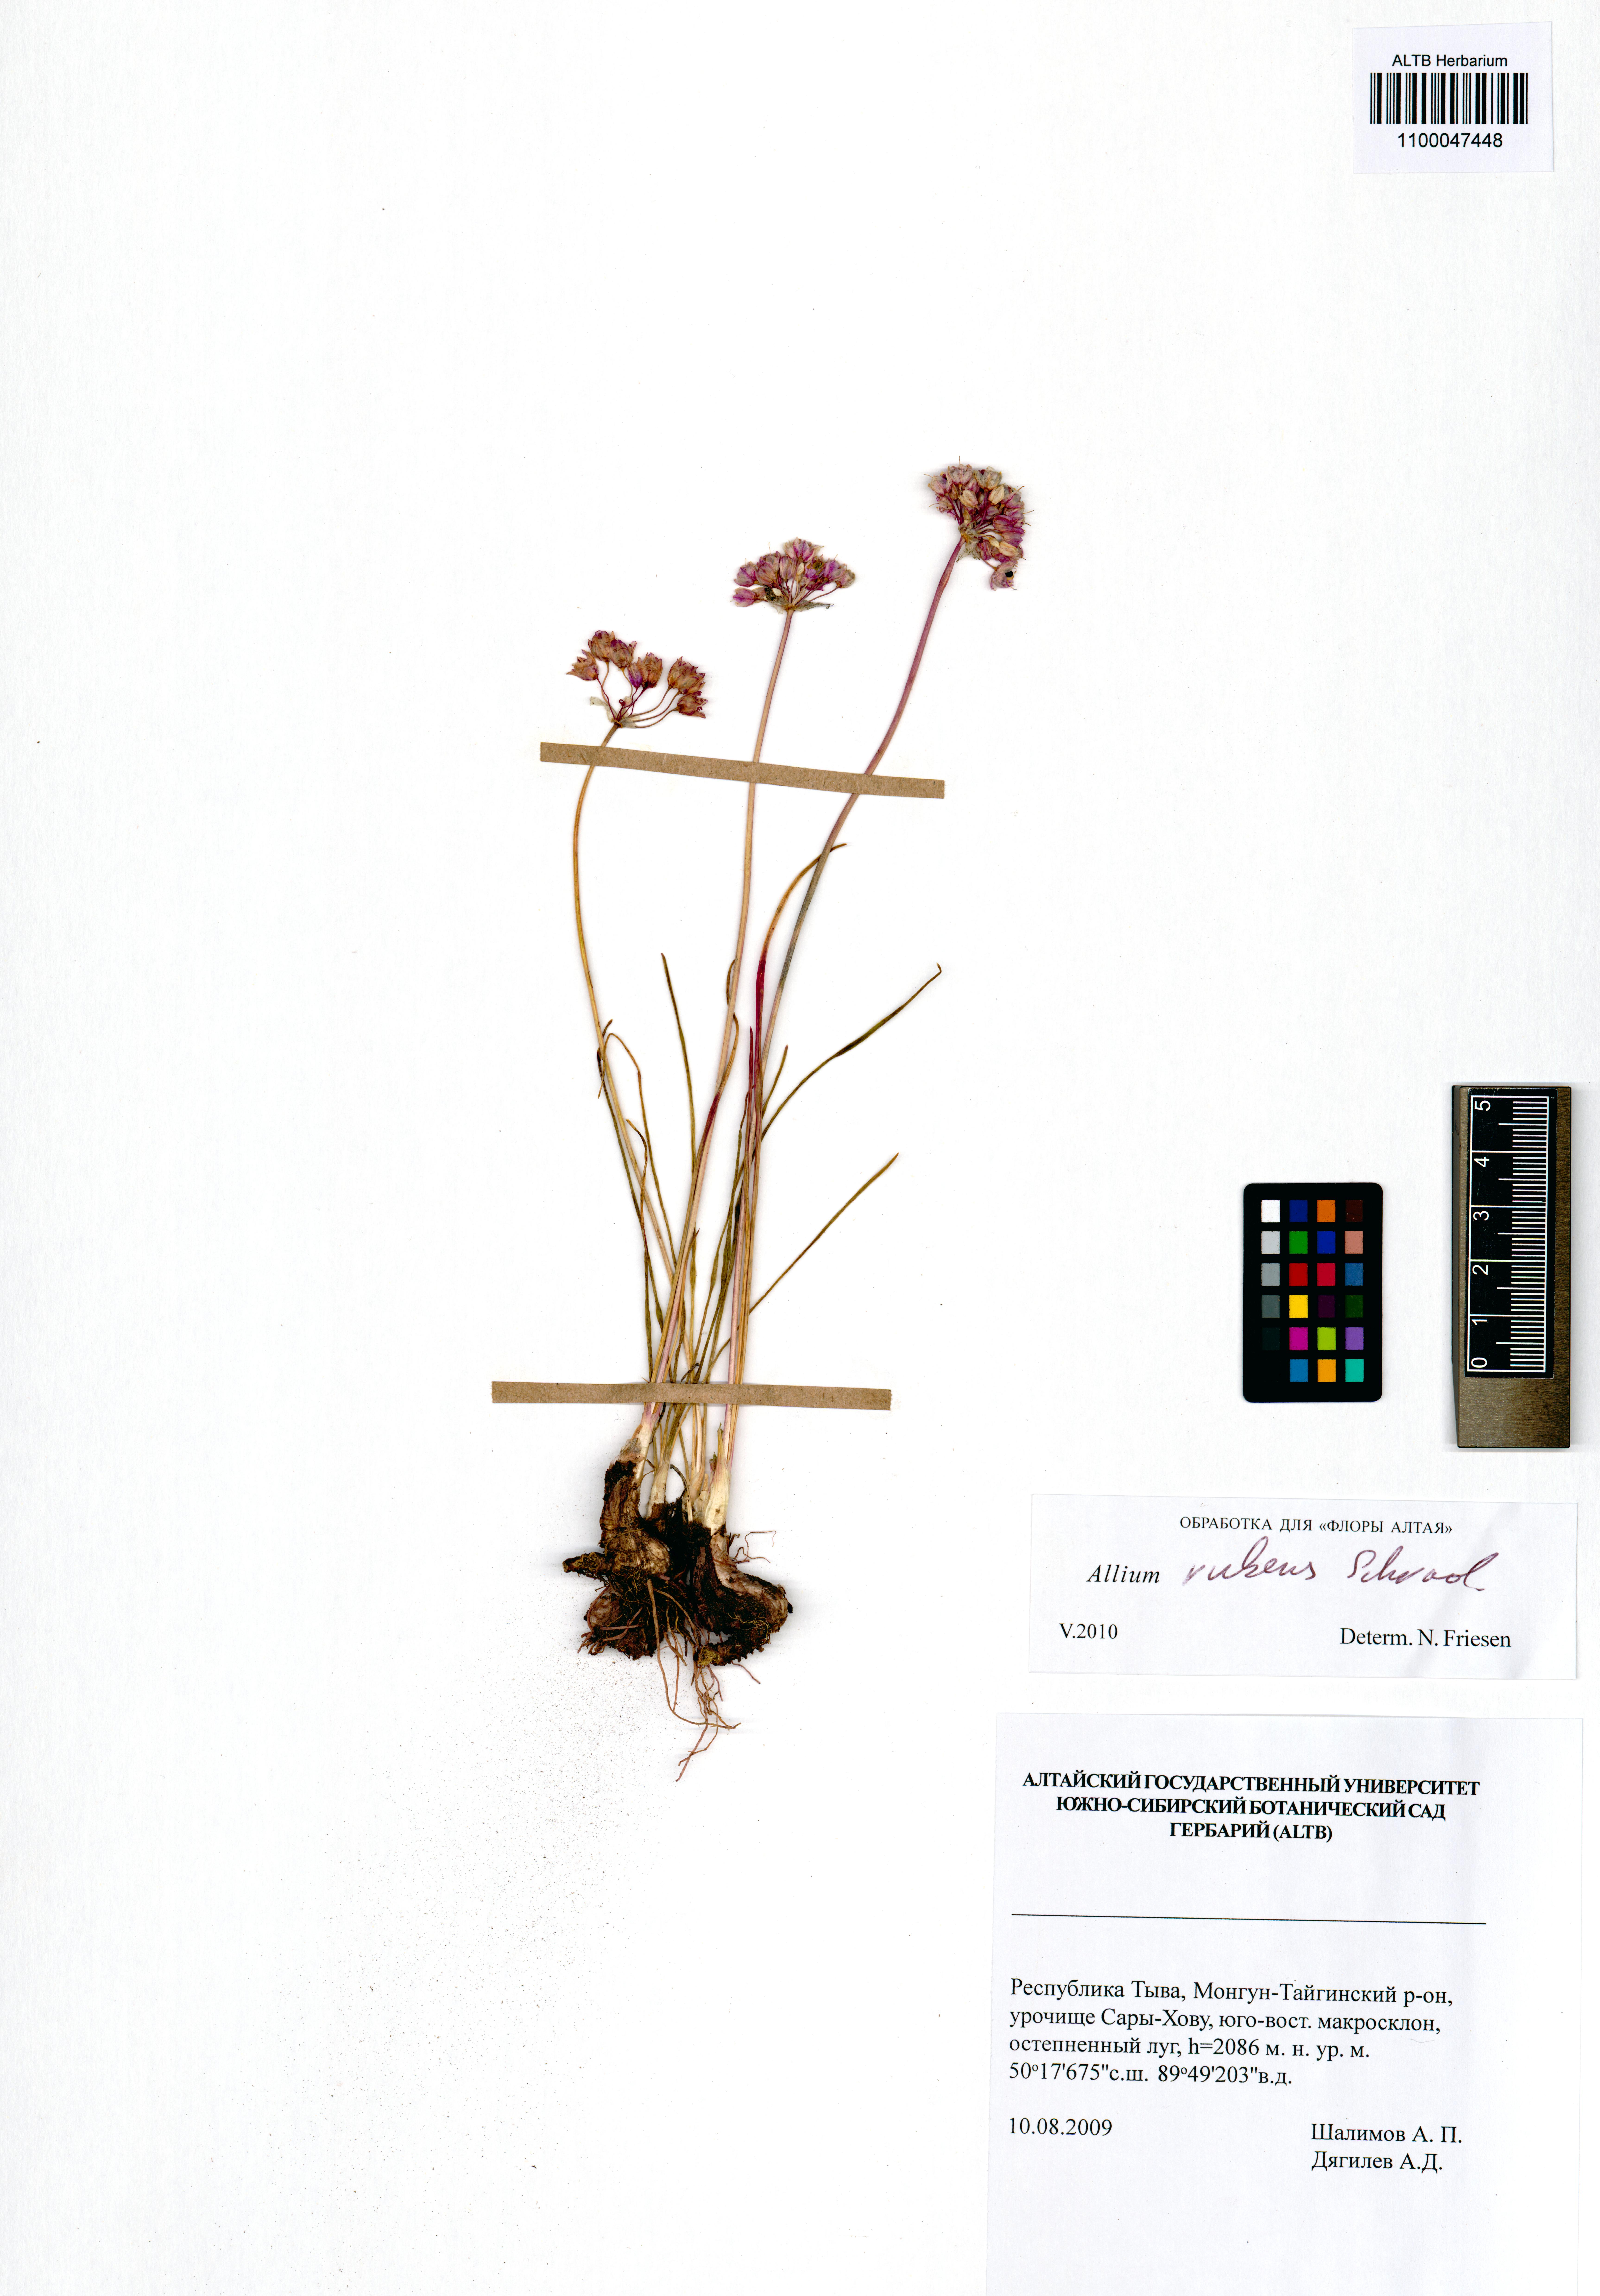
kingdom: Plantae
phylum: Tracheophyta
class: Liliopsida
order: Asparagales
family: Amaryllidaceae
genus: Allium
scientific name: Allium rubens
